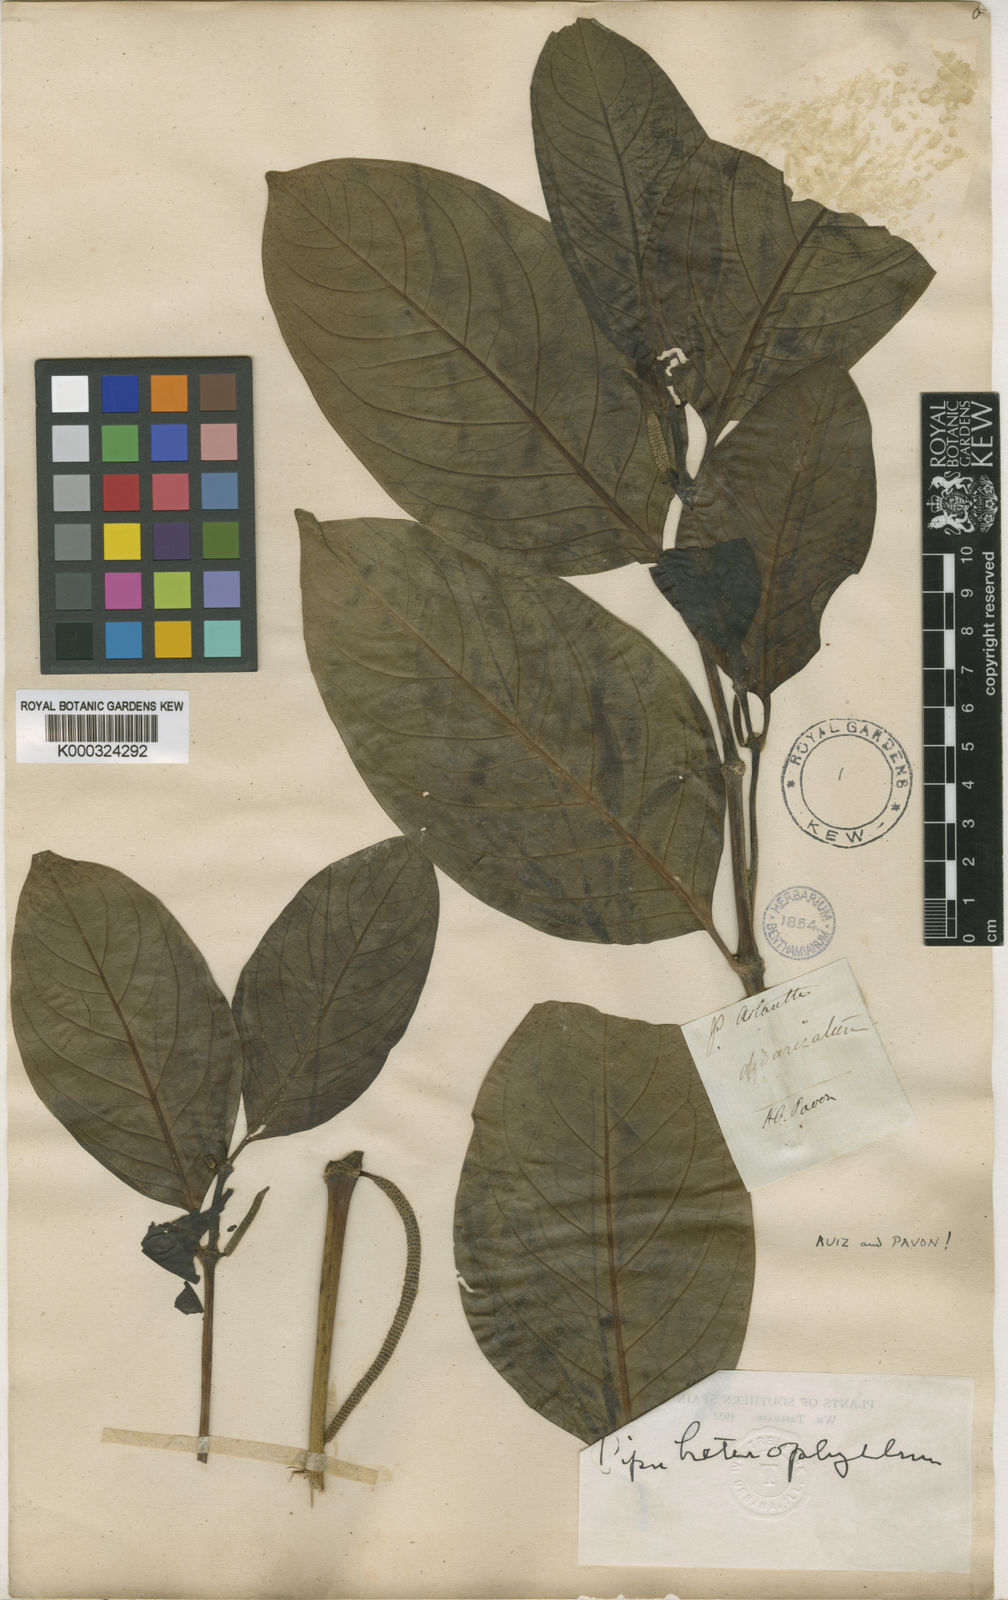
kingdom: Plantae
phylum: Tracheophyta
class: Magnoliopsida
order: Piperales
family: Piperaceae
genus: Piper
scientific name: Piper heterophyllum
